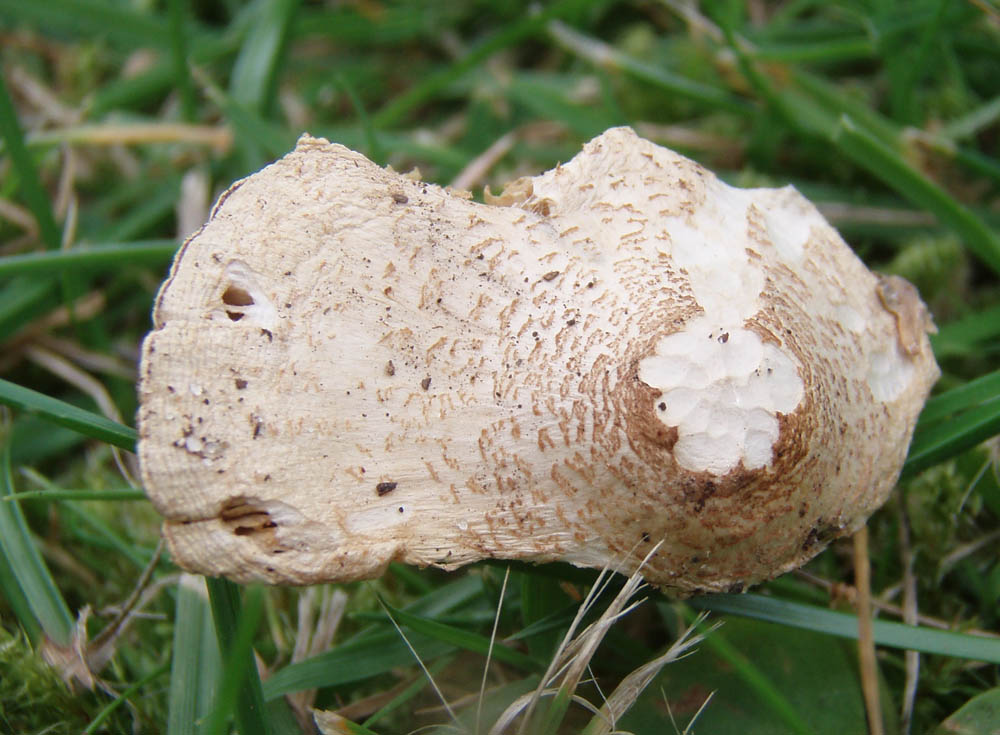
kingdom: Fungi
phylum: Basidiomycota
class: Agaricomycetes
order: Agaricales
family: Agaricaceae
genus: Lepiota
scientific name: Lepiota cristata
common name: stinkende parasolhat
